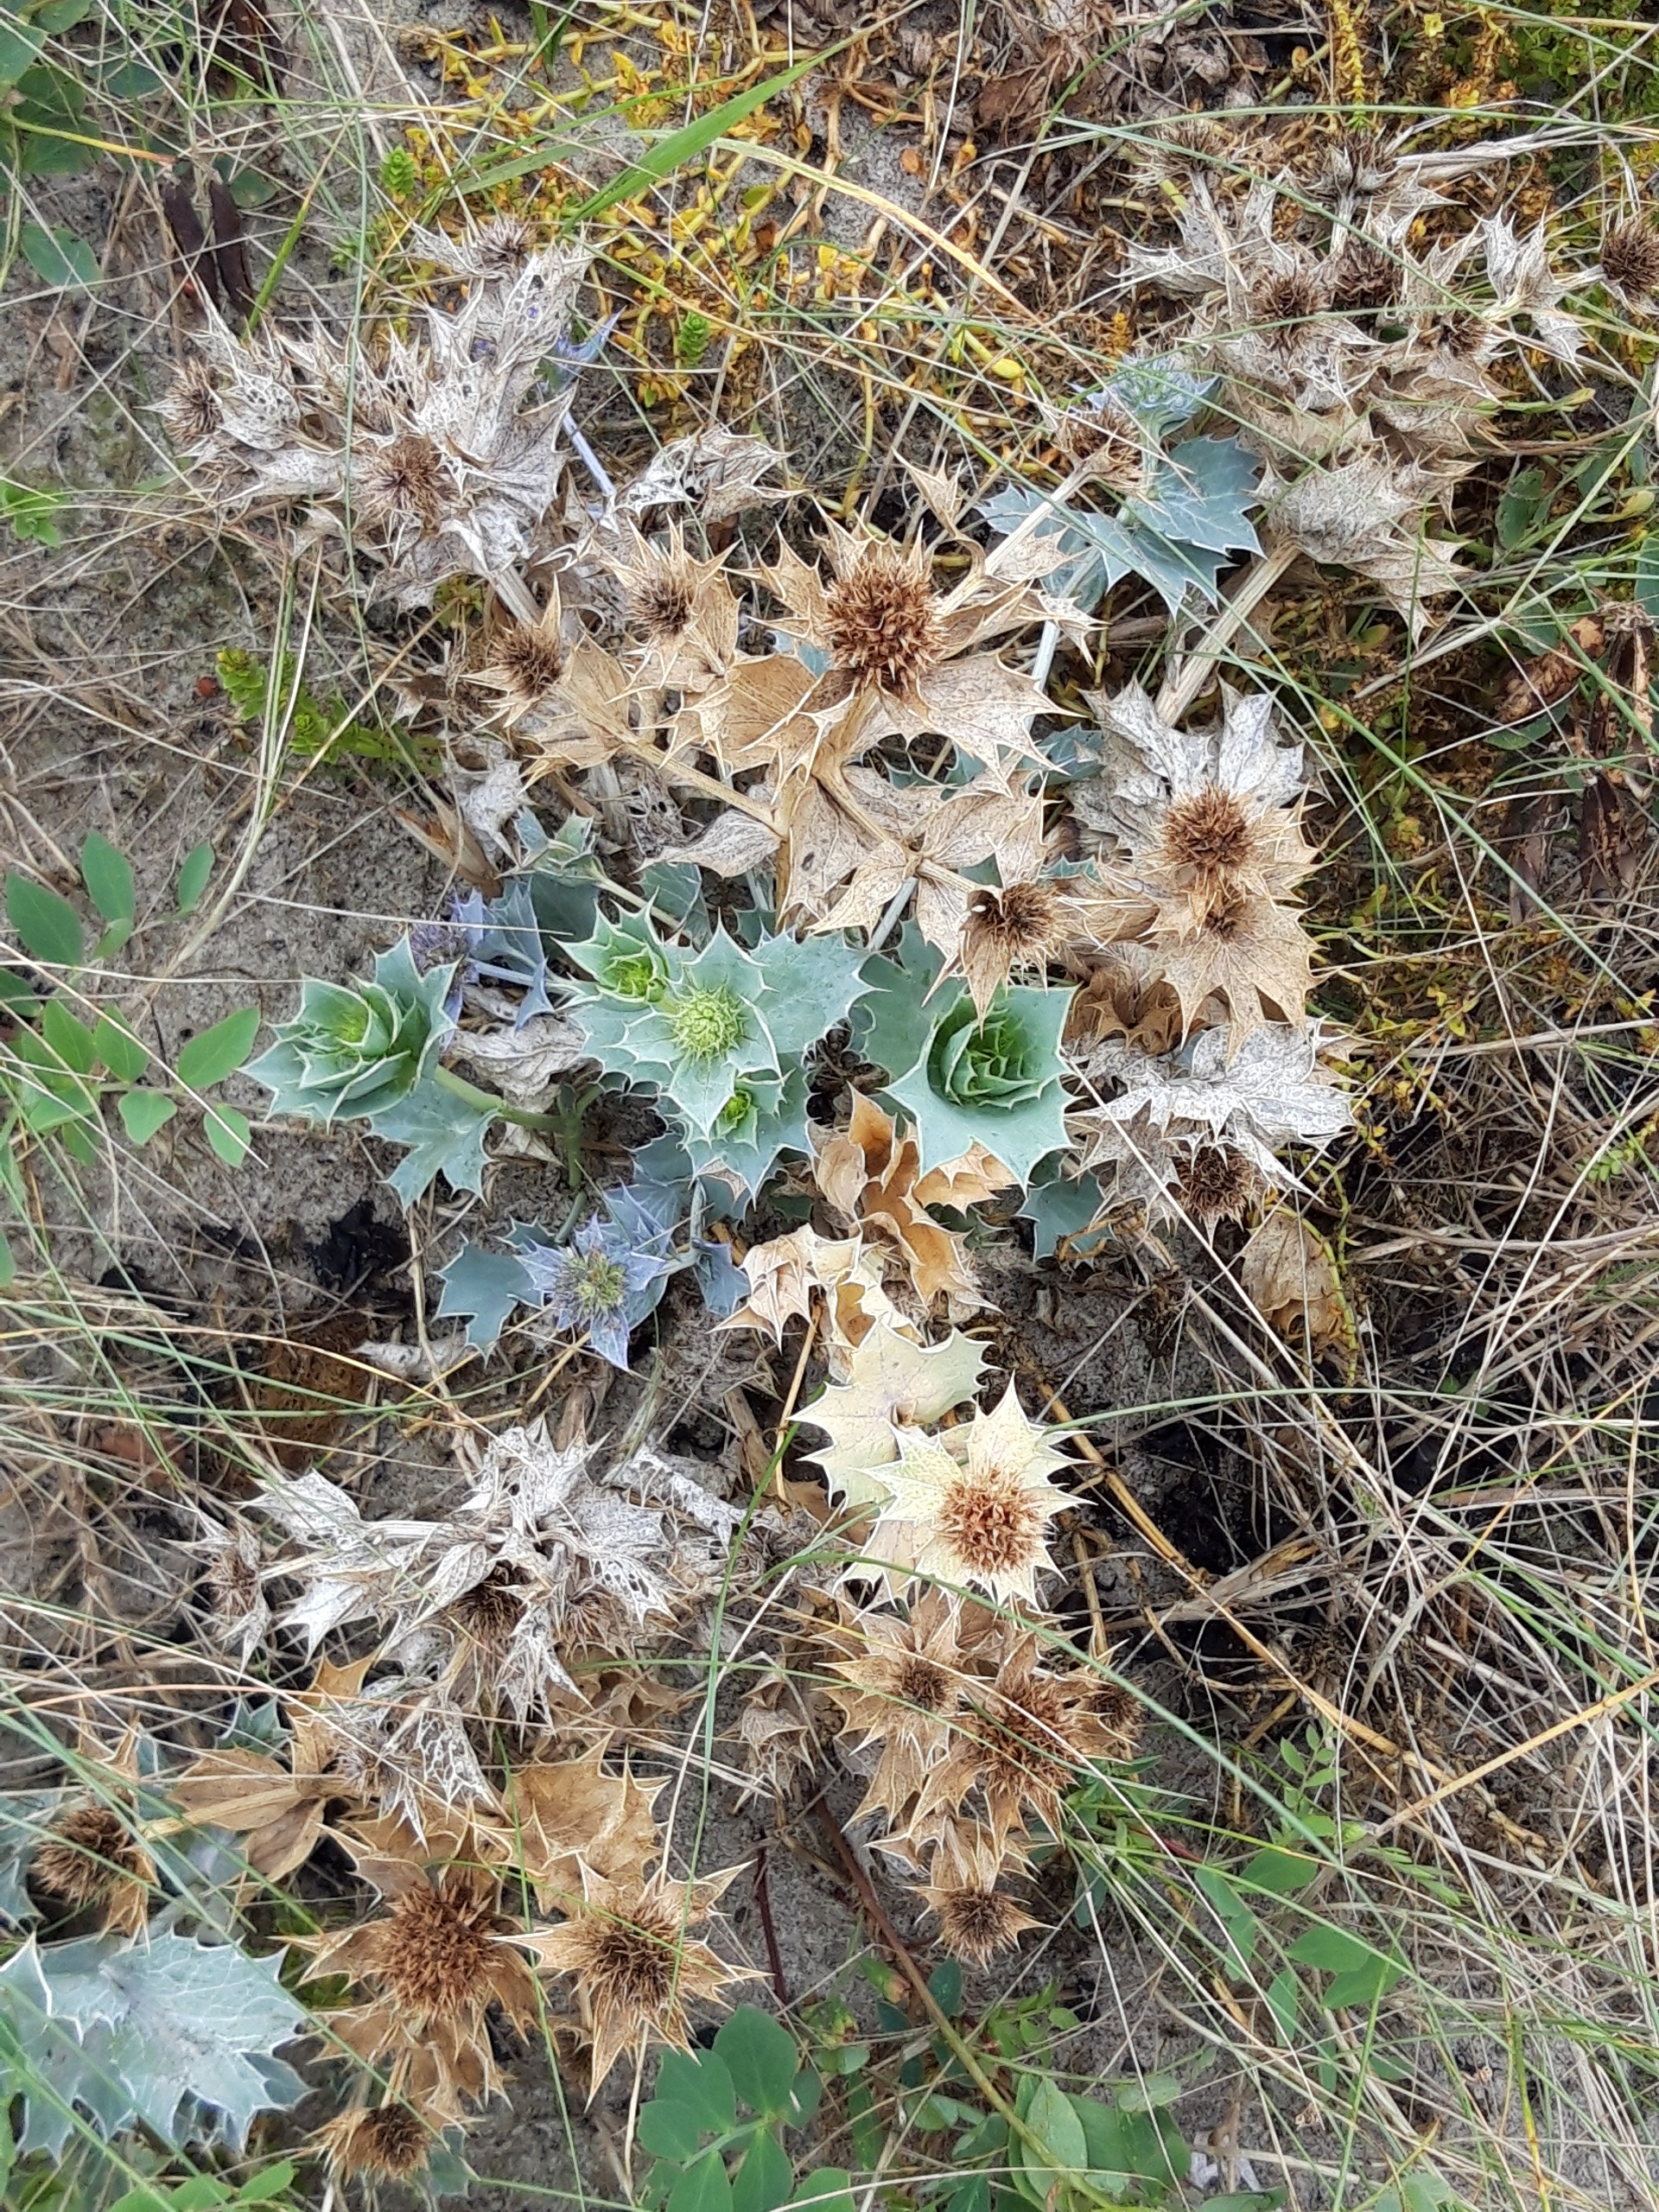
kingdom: Plantae
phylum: Tracheophyta
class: Magnoliopsida
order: Apiales
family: Apiaceae
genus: Eryngium
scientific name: Eryngium maritimum
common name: Strand-mandstro
